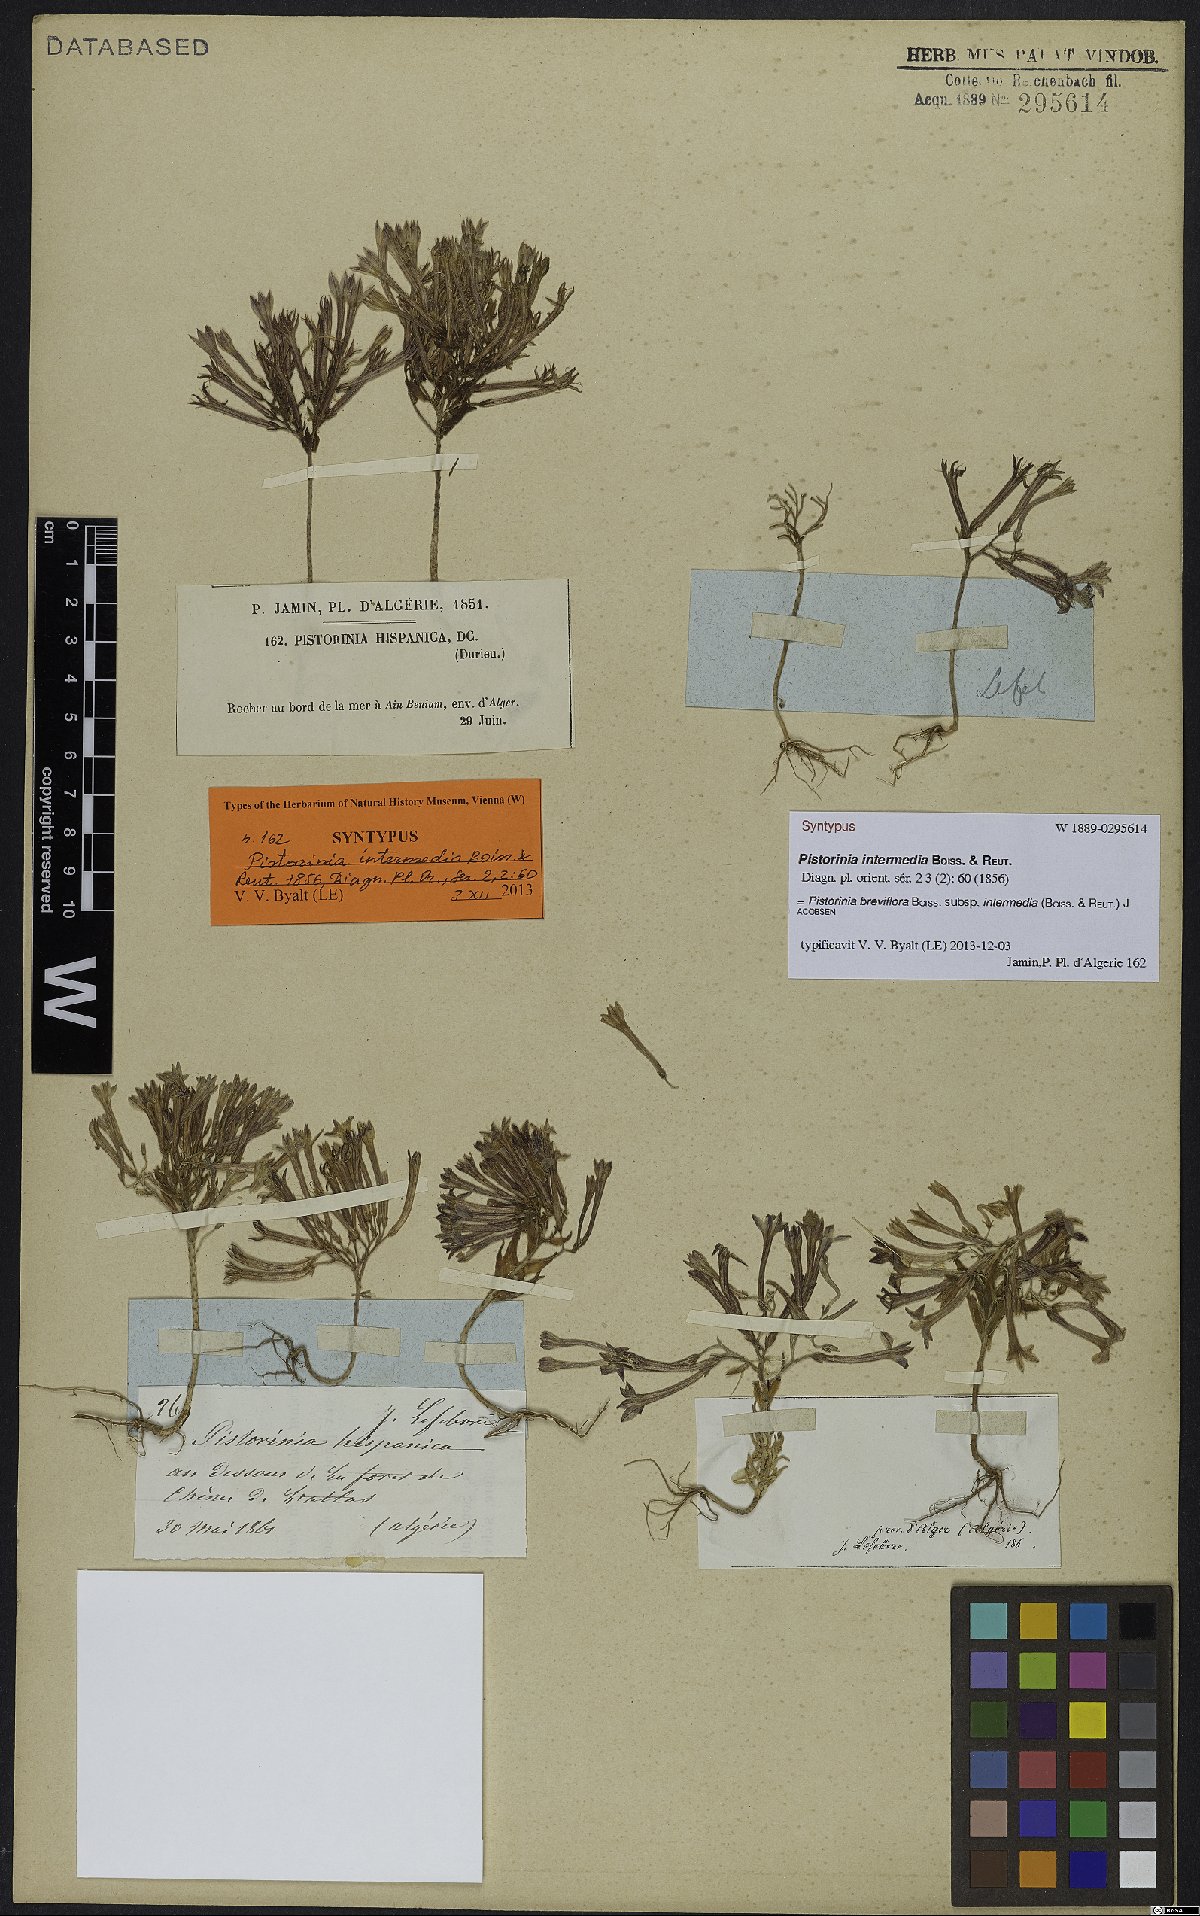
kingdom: Plantae
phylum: Tracheophyta
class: Magnoliopsida
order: Saxifragales
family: Crassulaceae
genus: Pistorinia
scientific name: Pistorinia breviflora
